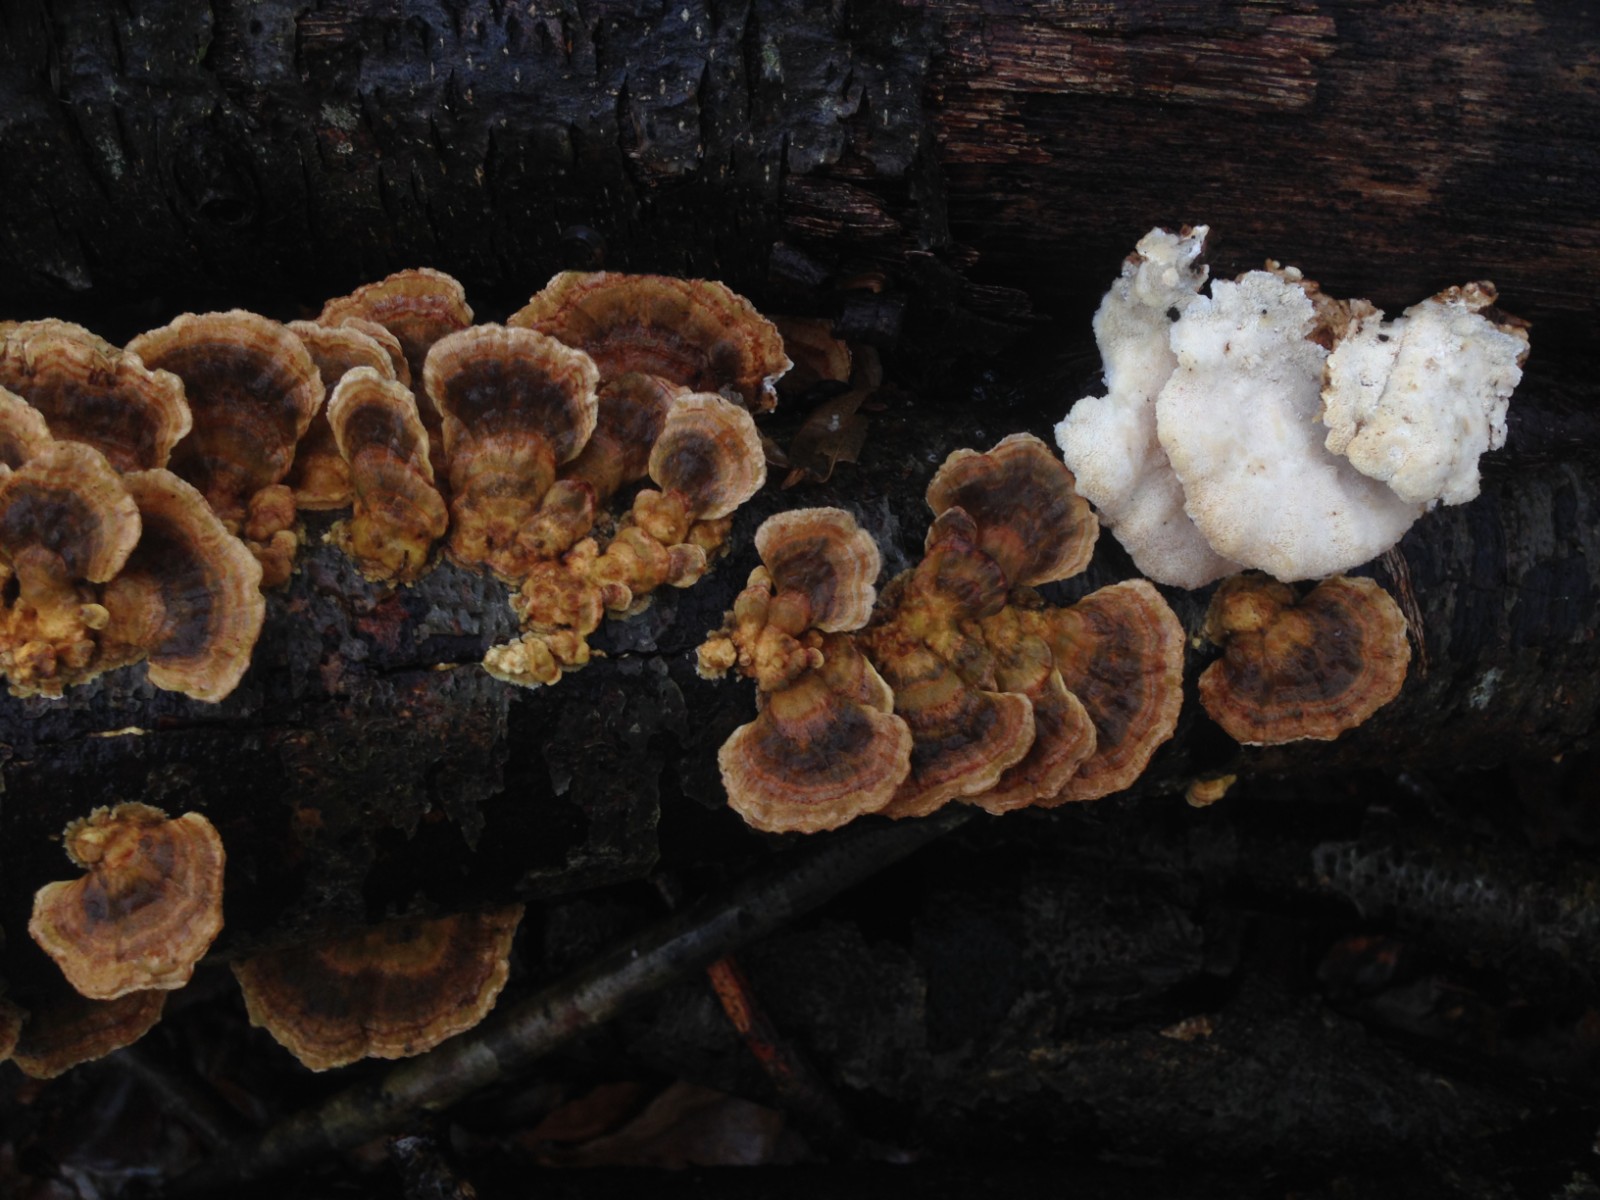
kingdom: Fungi
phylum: Basidiomycota
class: Agaricomycetes
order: Polyporales
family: Polyporaceae
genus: Trametes
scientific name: Trametes versicolor
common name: broget læderporesvamp
